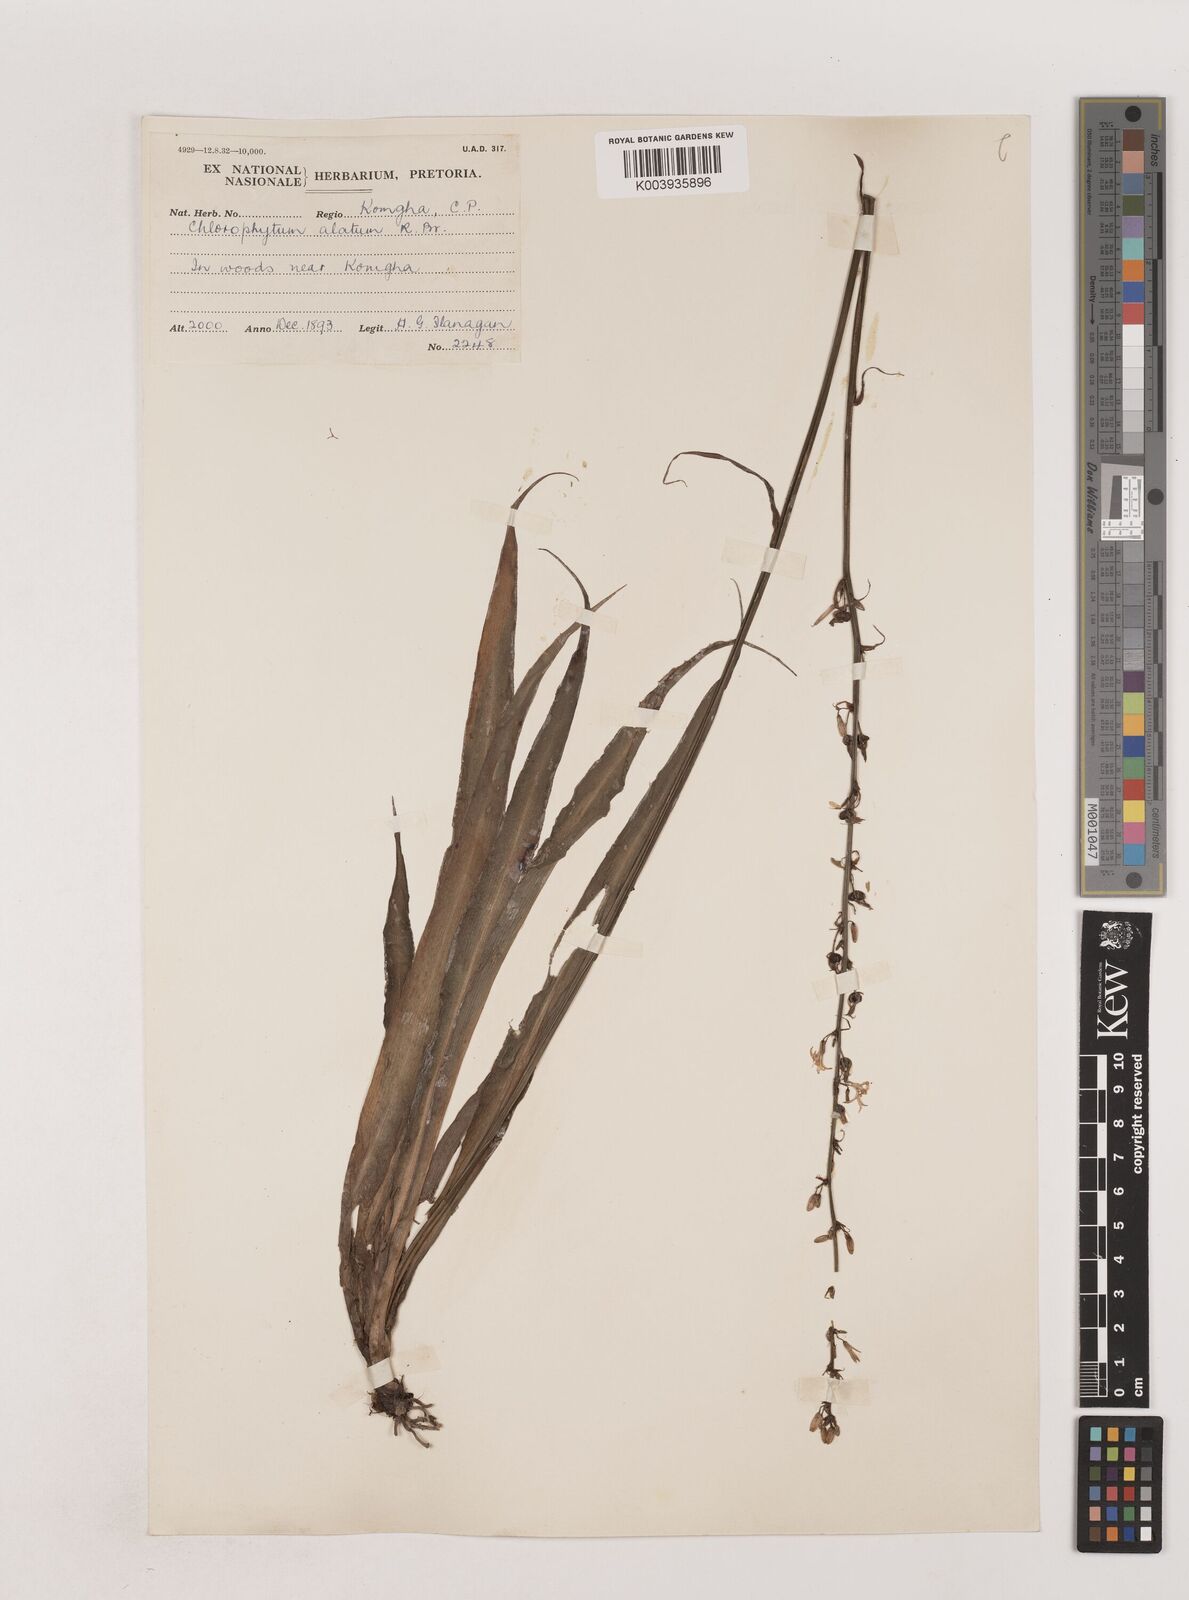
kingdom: Plantae
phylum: Tracheophyta
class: Liliopsida
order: Asparagales
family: Asparagaceae
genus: Chlorophytum
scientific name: Chlorophytum comosum
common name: Spider plant
